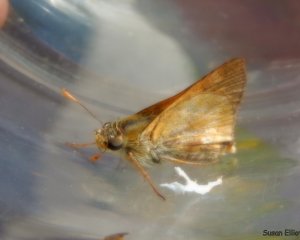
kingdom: Animalia
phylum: Arthropoda
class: Insecta
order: Lepidoptera
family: Hesperiidae
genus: Polites
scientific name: Polites
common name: Long Dash Skipper
